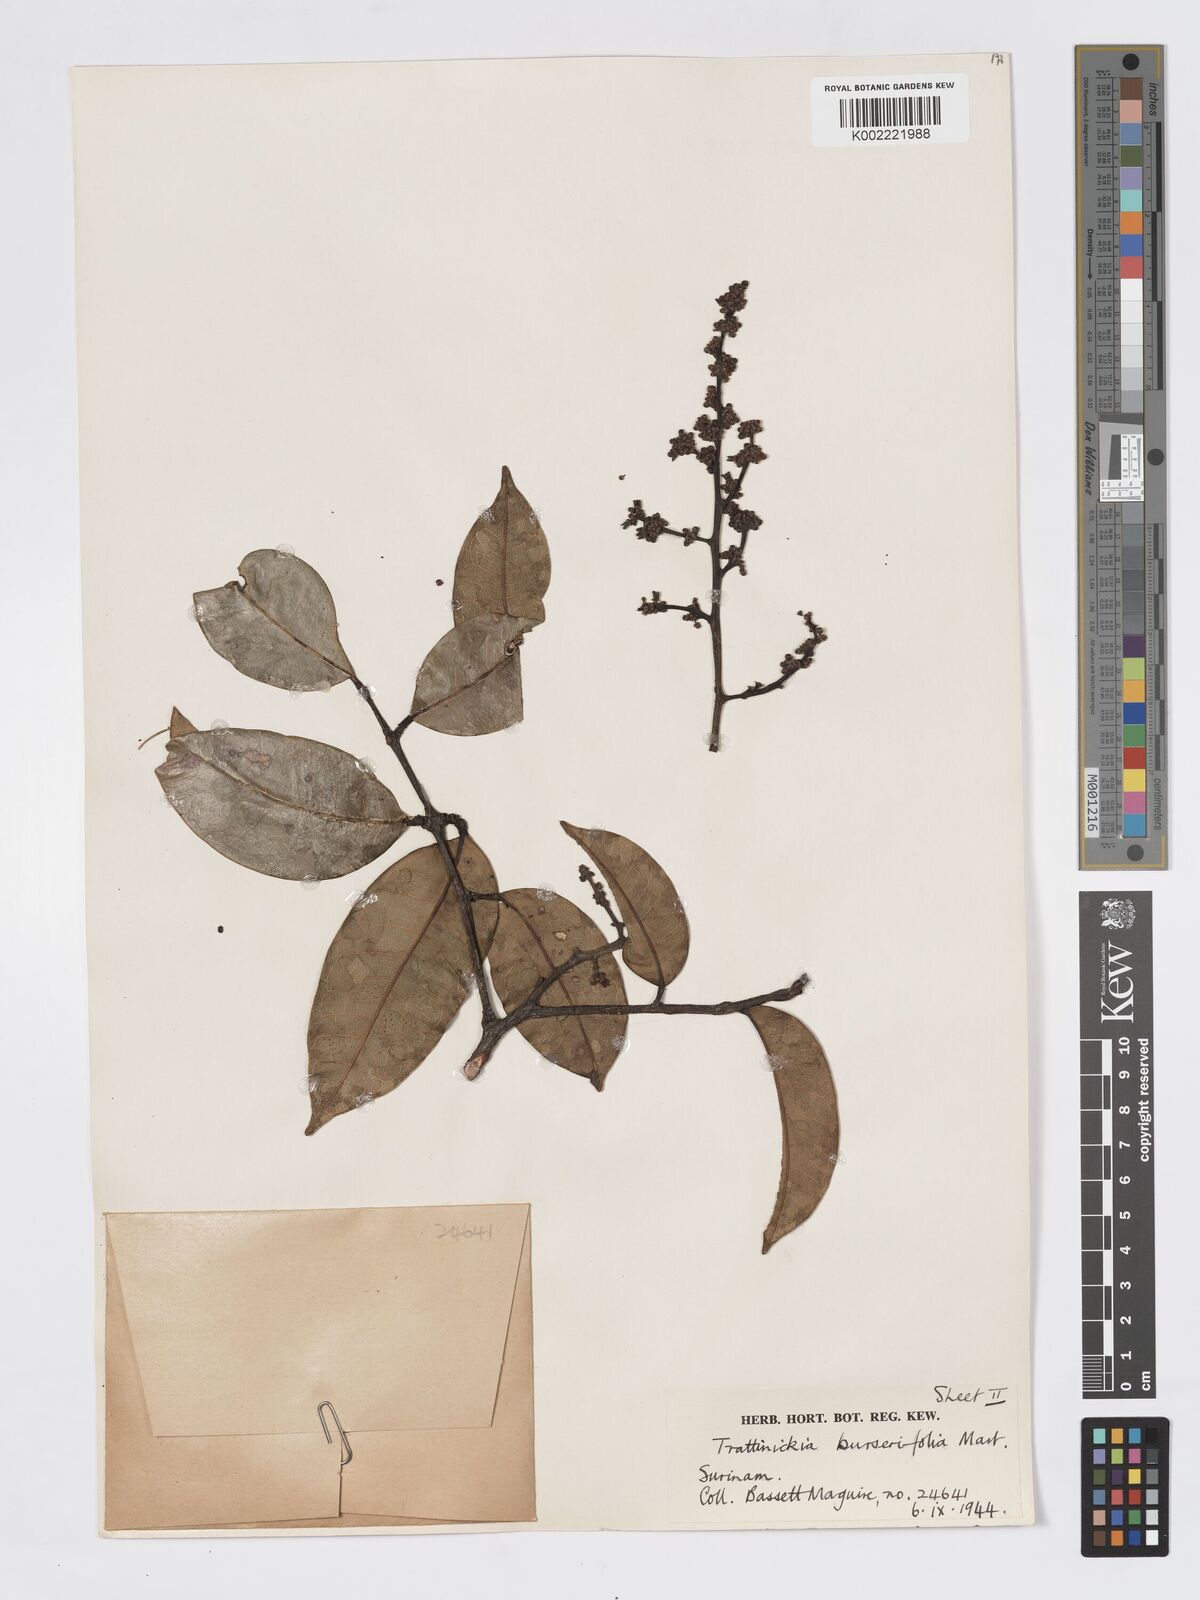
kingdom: Plantae
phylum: Tracheophyta
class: Magnoliopsida
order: Sapindales
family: Burseraceae
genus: Trattinnickia
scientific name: Trattinnickia burserifolia
